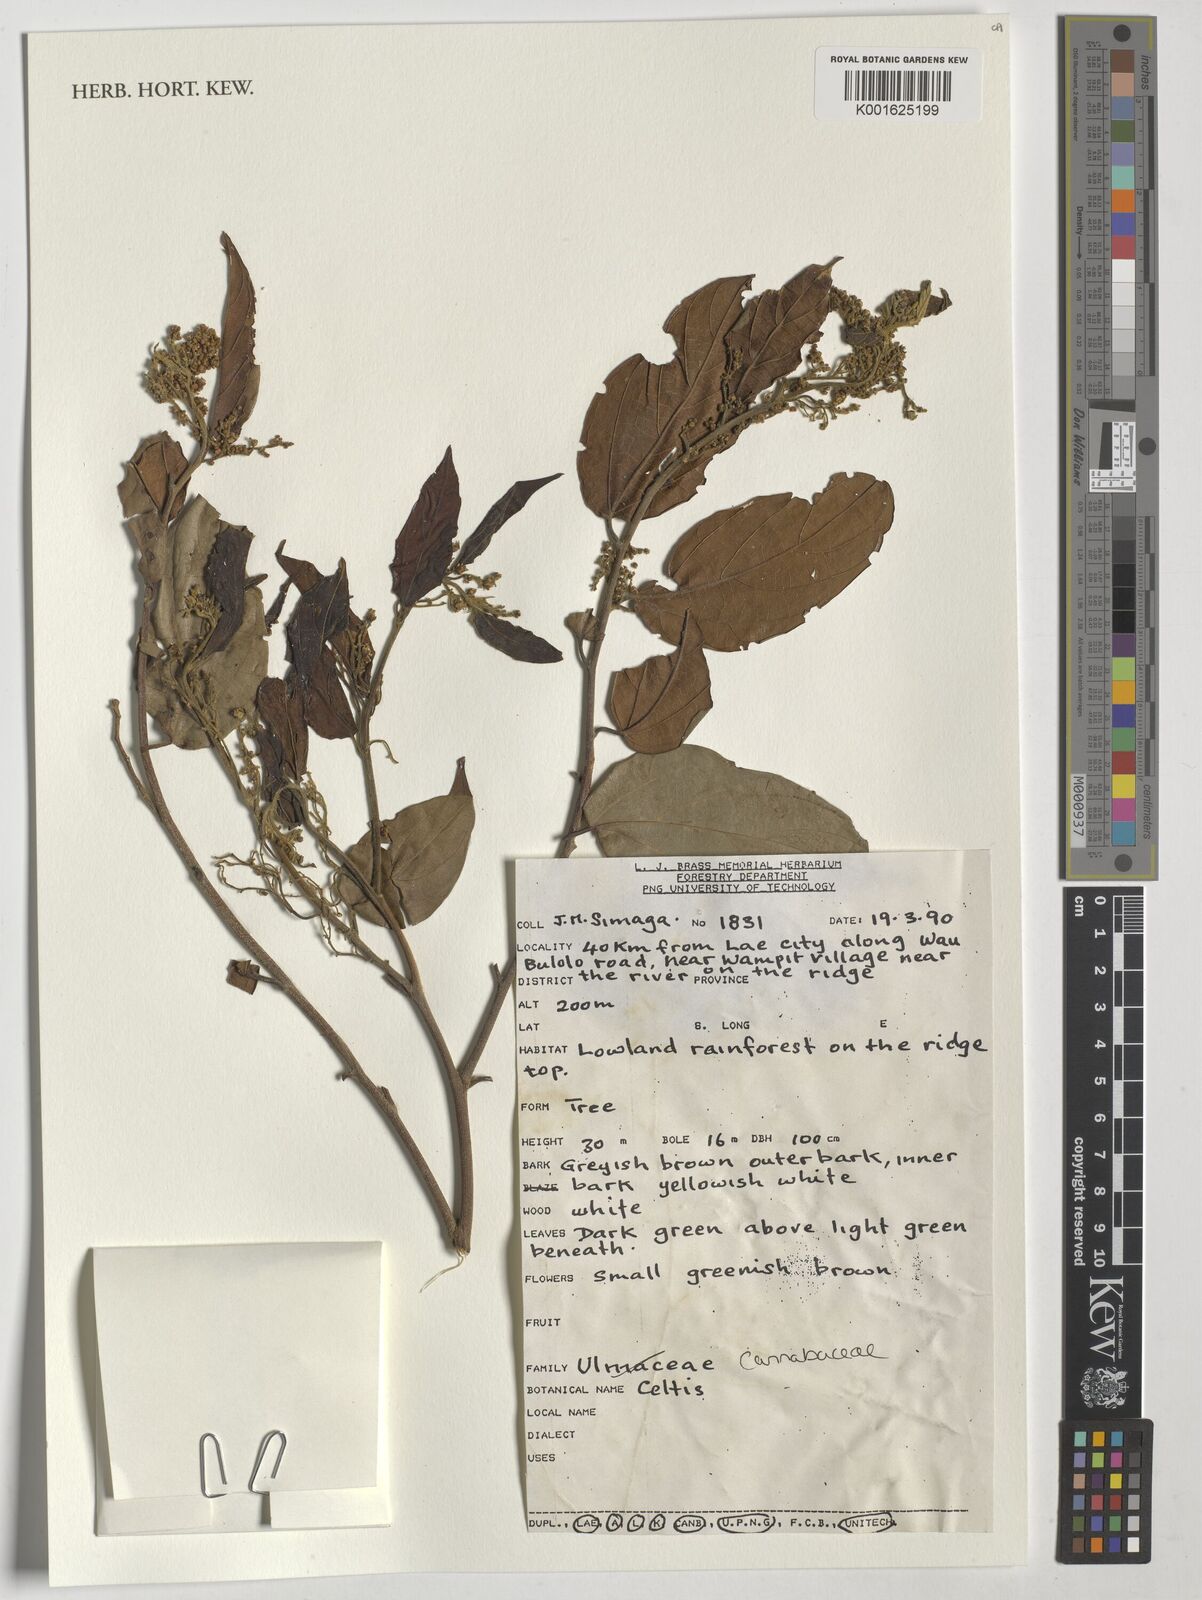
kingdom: Plantae
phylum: Tracheophyta
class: Magnoliopsida
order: Rosales
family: Cannabaceae
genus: Celtis
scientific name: Celtis
